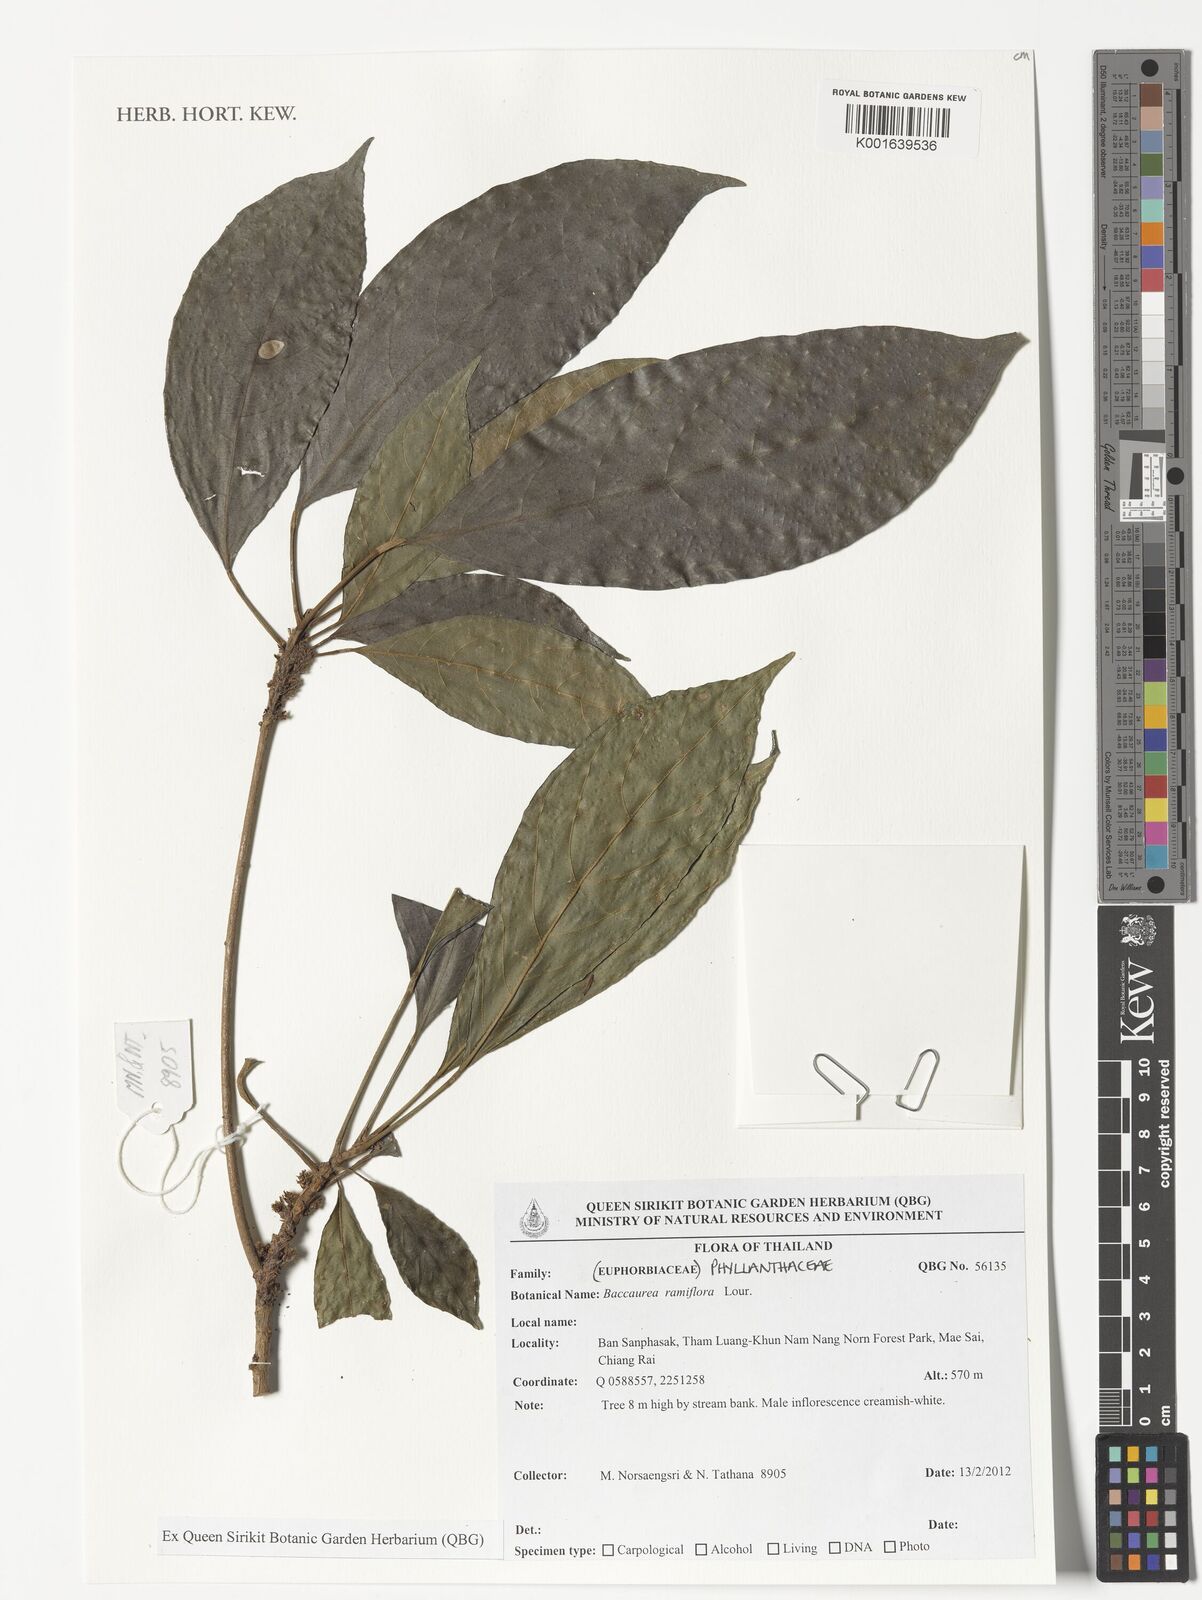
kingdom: Plantae
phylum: Tracheophyta
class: Magnoliopsida
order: Malpighiales
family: Phyllanthaceae
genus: Baccaurea
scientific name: Baccaurea ramiflora
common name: Baccaurea
